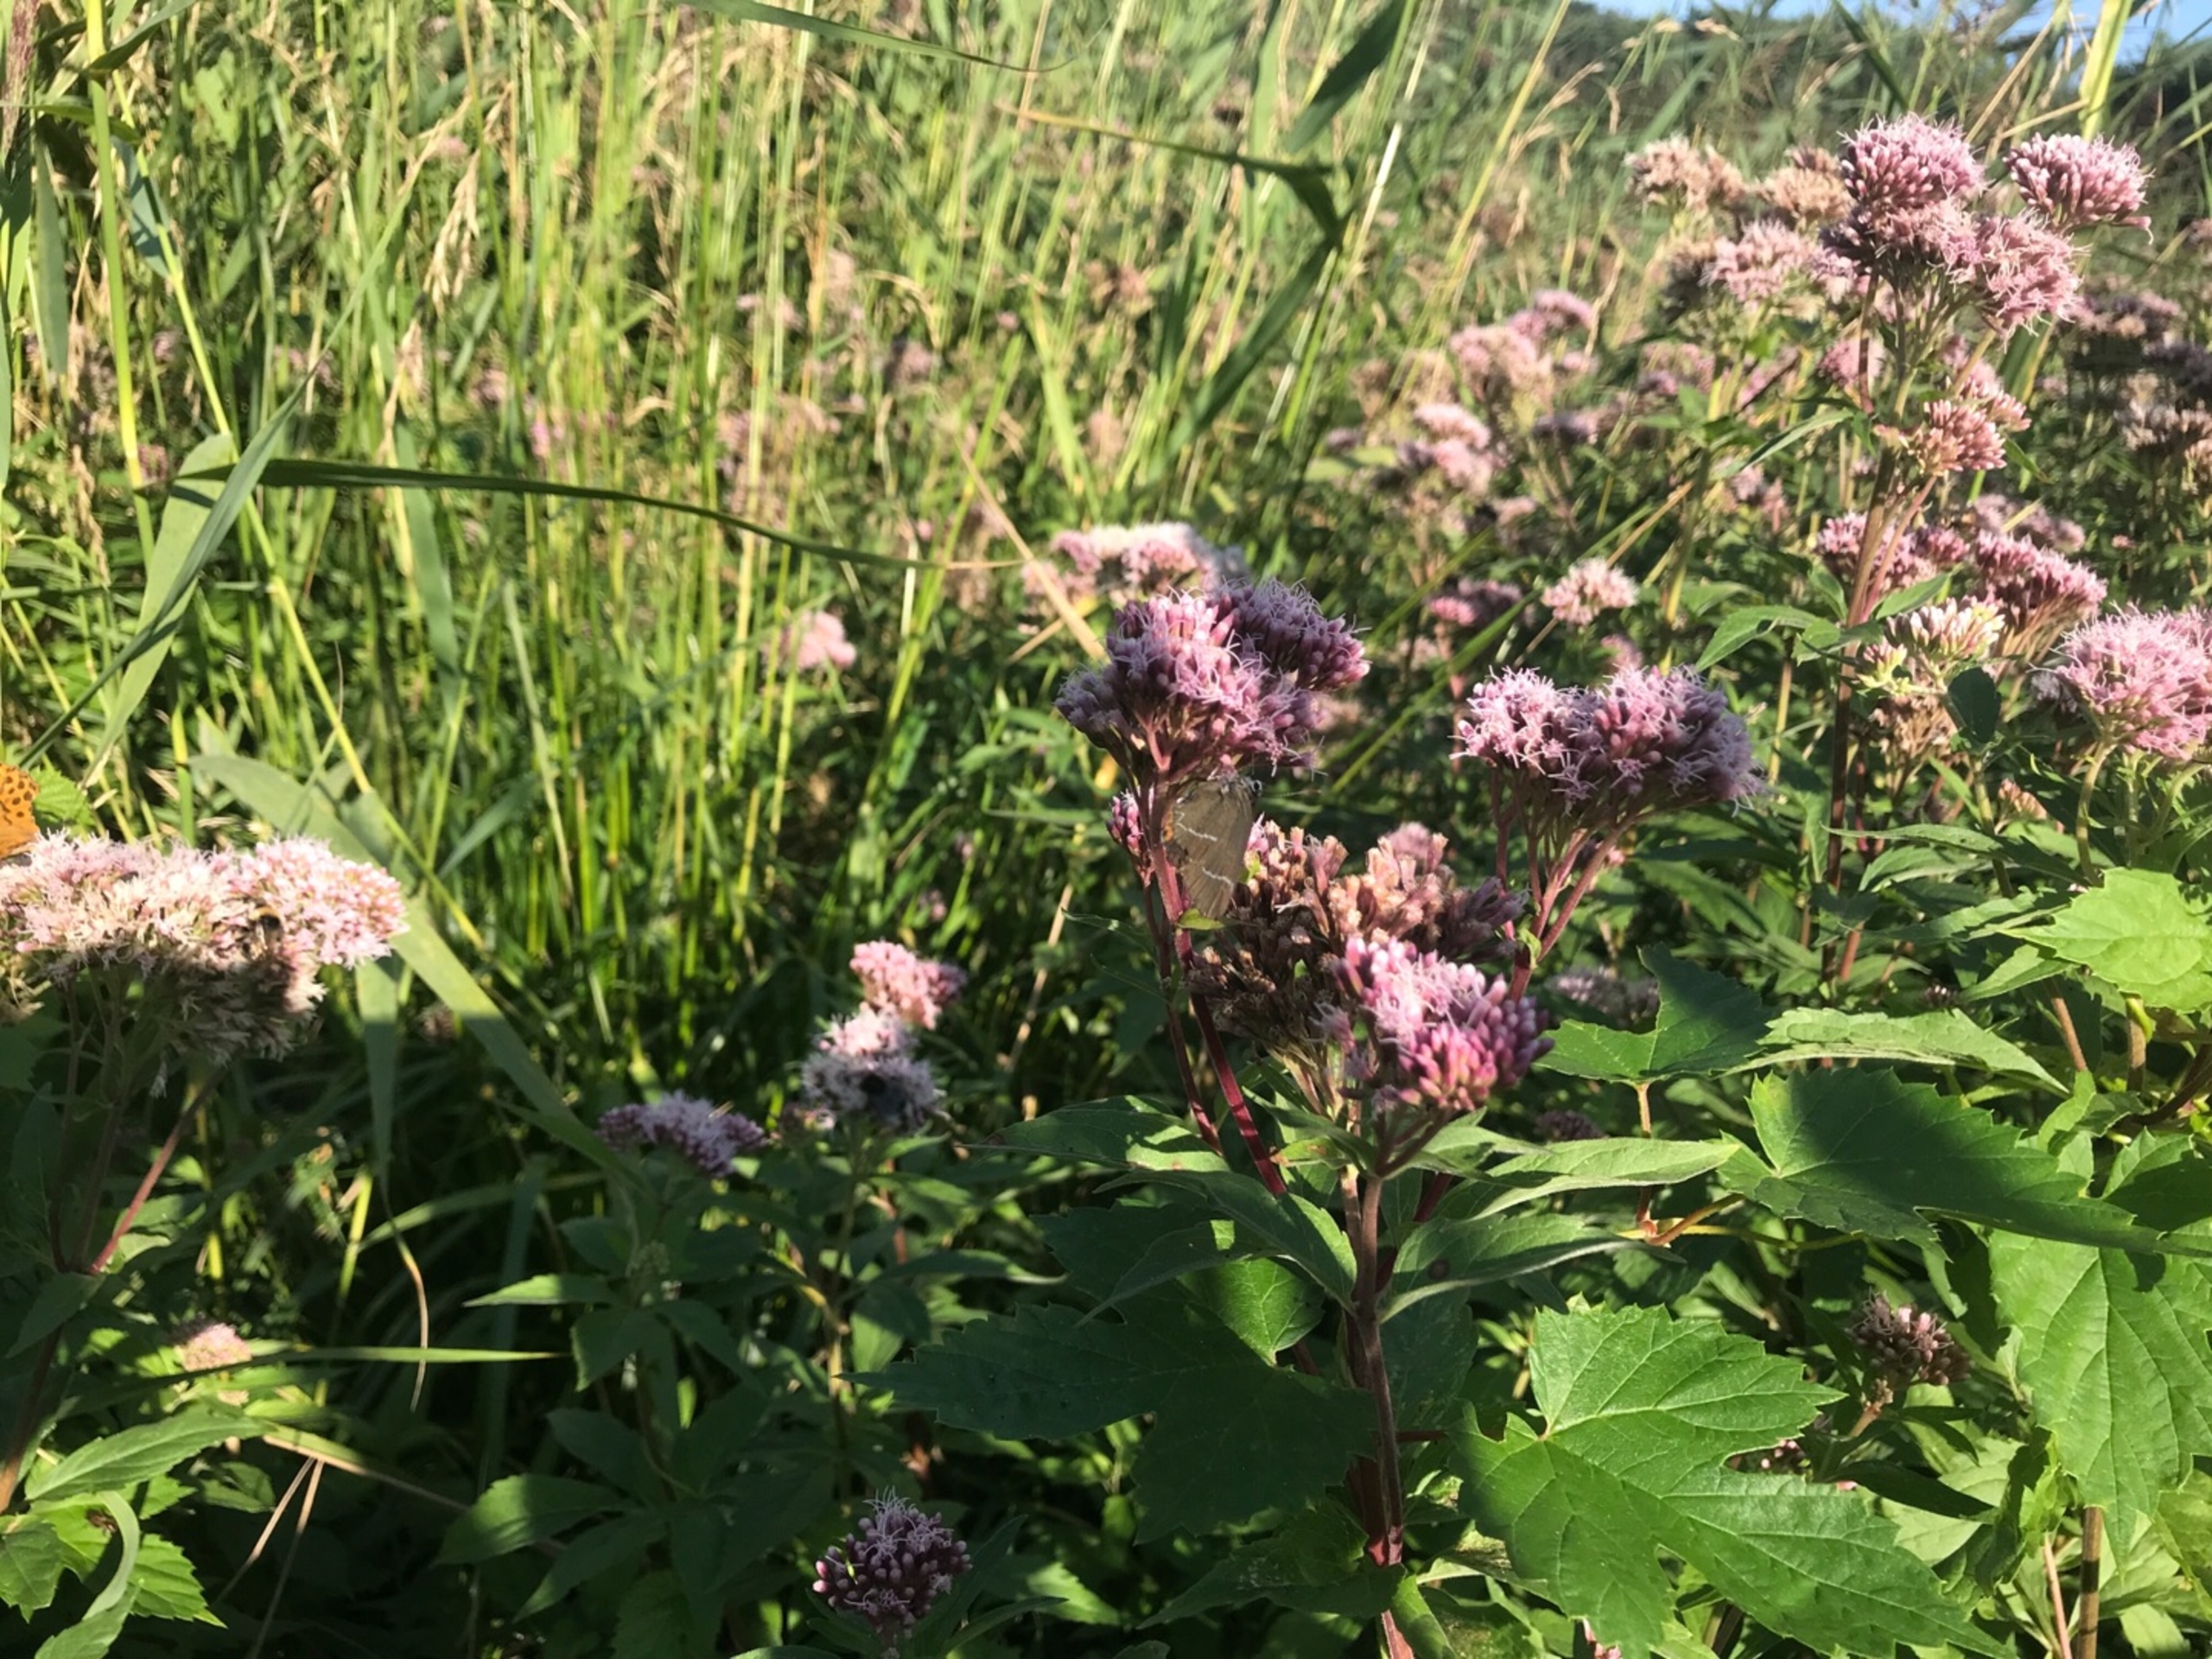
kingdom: Animalia
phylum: Arthropoda
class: Insecta
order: Lepidoptera
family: Lycaenidae
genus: Satyrium
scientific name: Satyrium w-album
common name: Det hvide W
